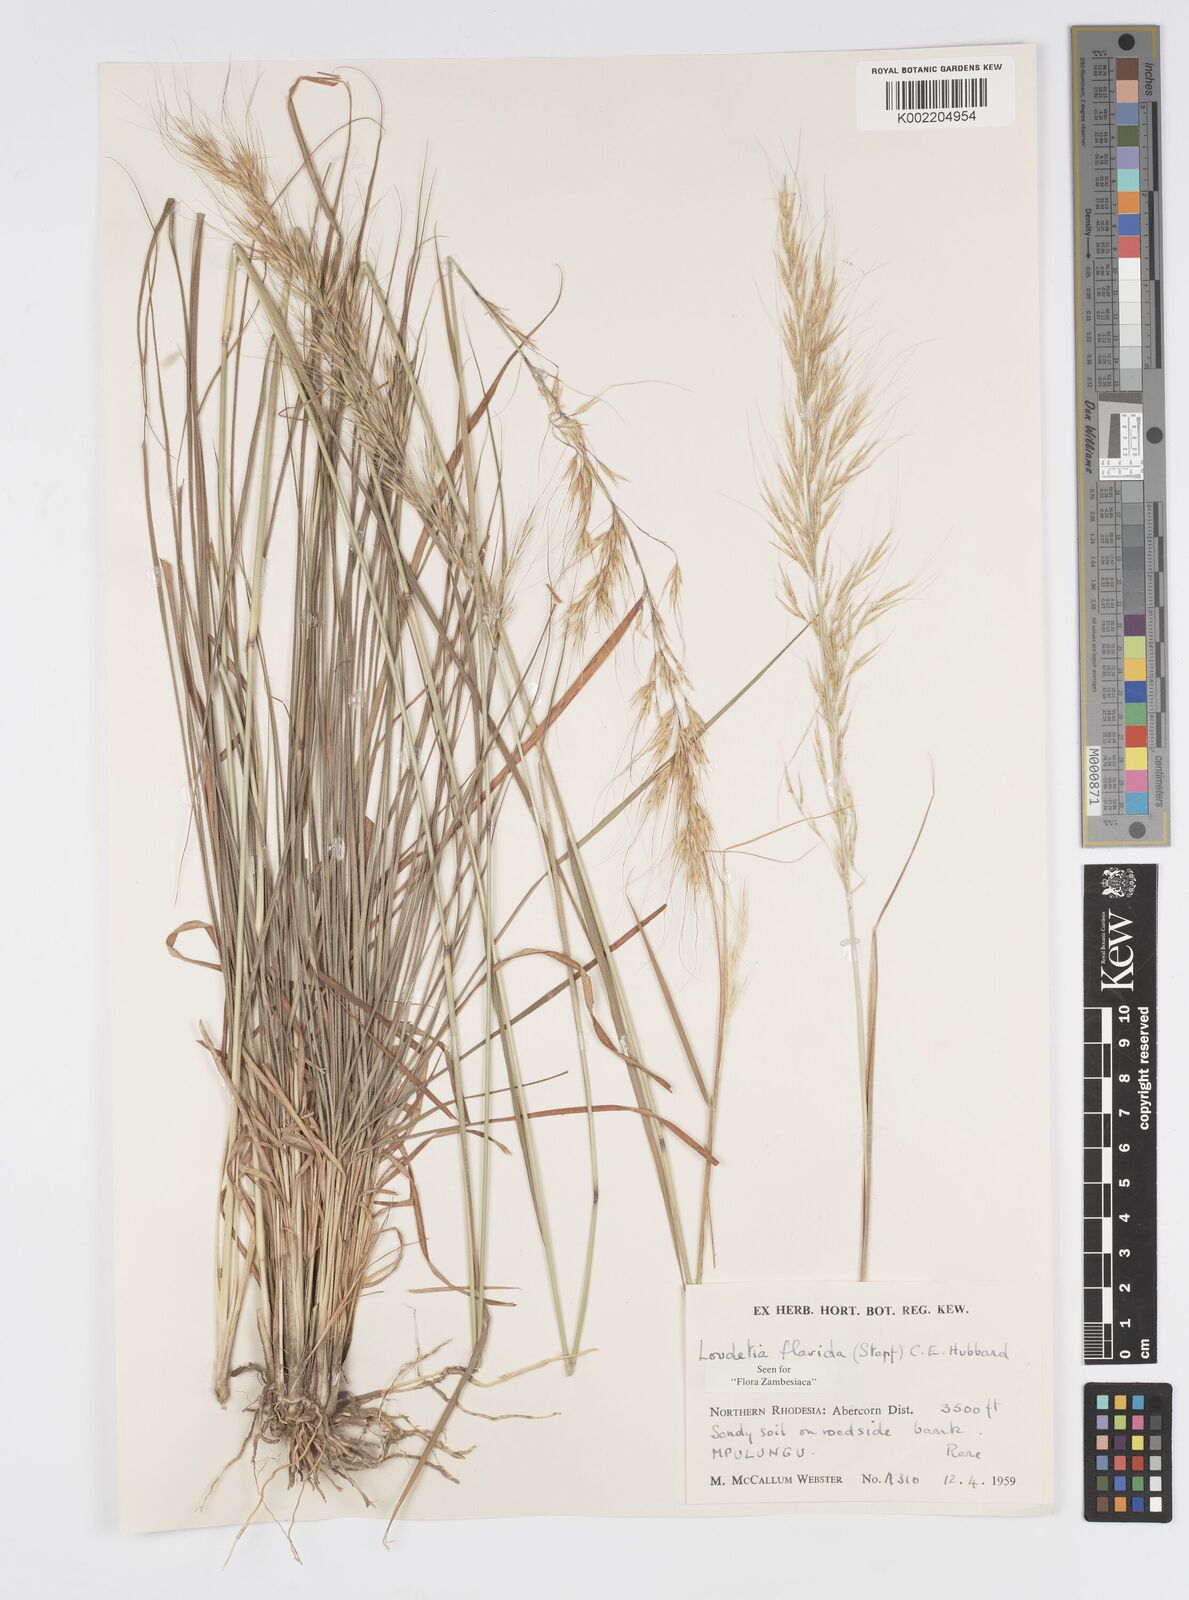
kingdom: Plantae
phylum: Tracheophyta
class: Liliopsida
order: Poales
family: Poaceae
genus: Loudetia
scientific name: Loudetia flavida
